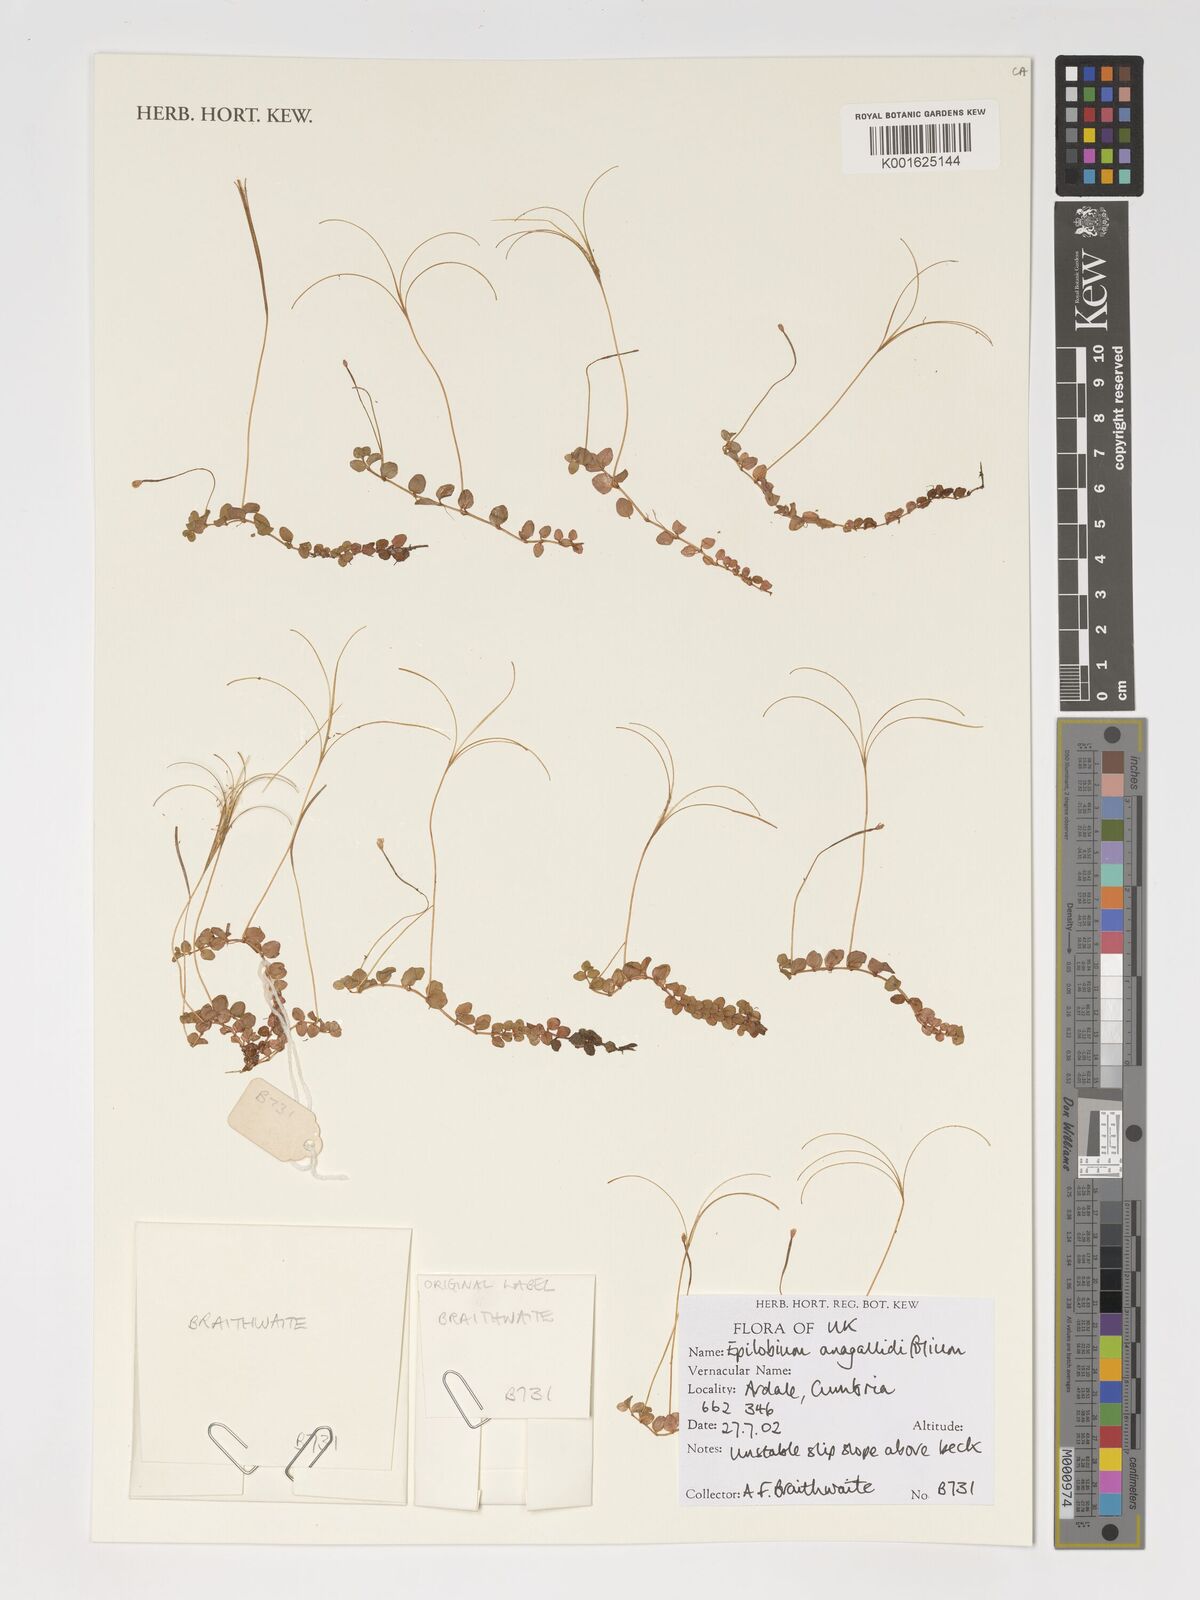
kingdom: Plantae
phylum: Tracheophyta
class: Magnoliopsida
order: Myrtales
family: Onagraceae
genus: Epilobium
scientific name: Epilobium anagallidifolium
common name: Alpine willowherb
